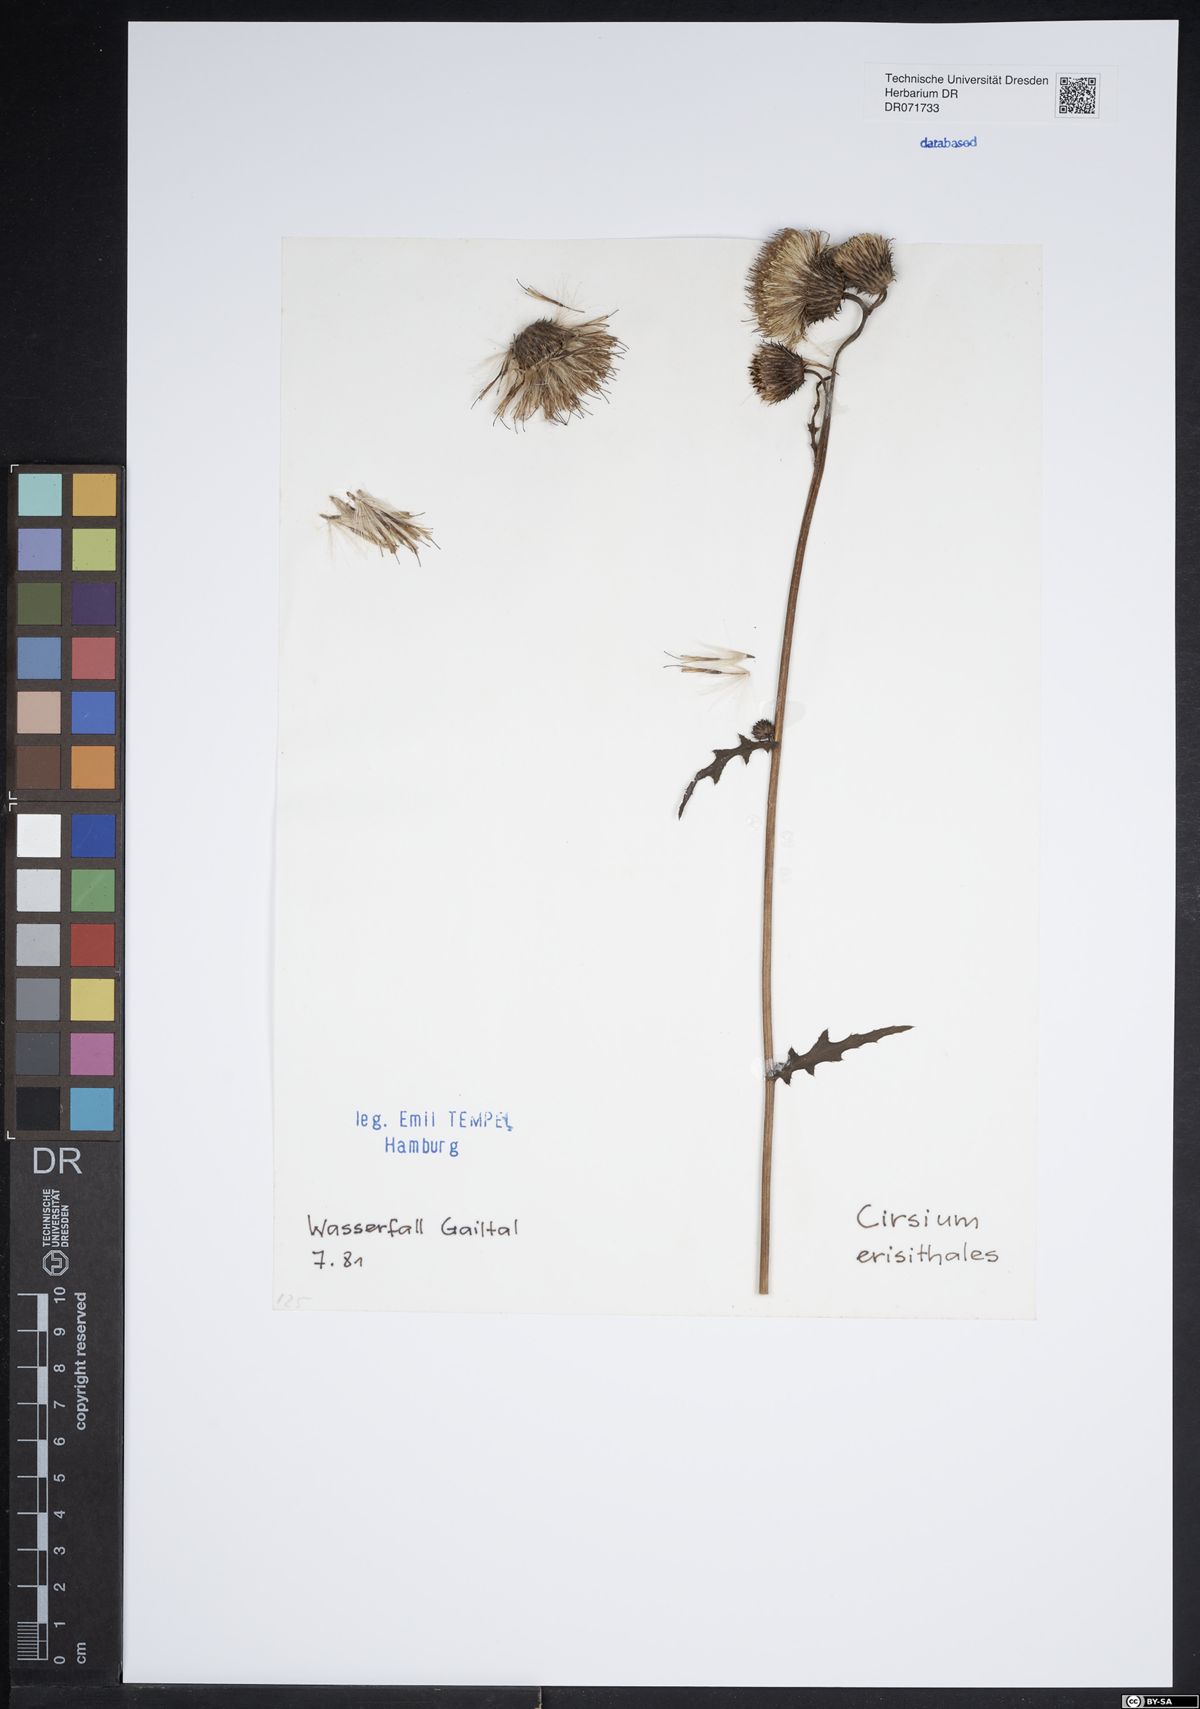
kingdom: Plantae
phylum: Tracheophyta
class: Magnoliopsida
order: Asterales
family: Asteraceae
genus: Cirsium
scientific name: Cirsium erisithales
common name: Yellow thistle
